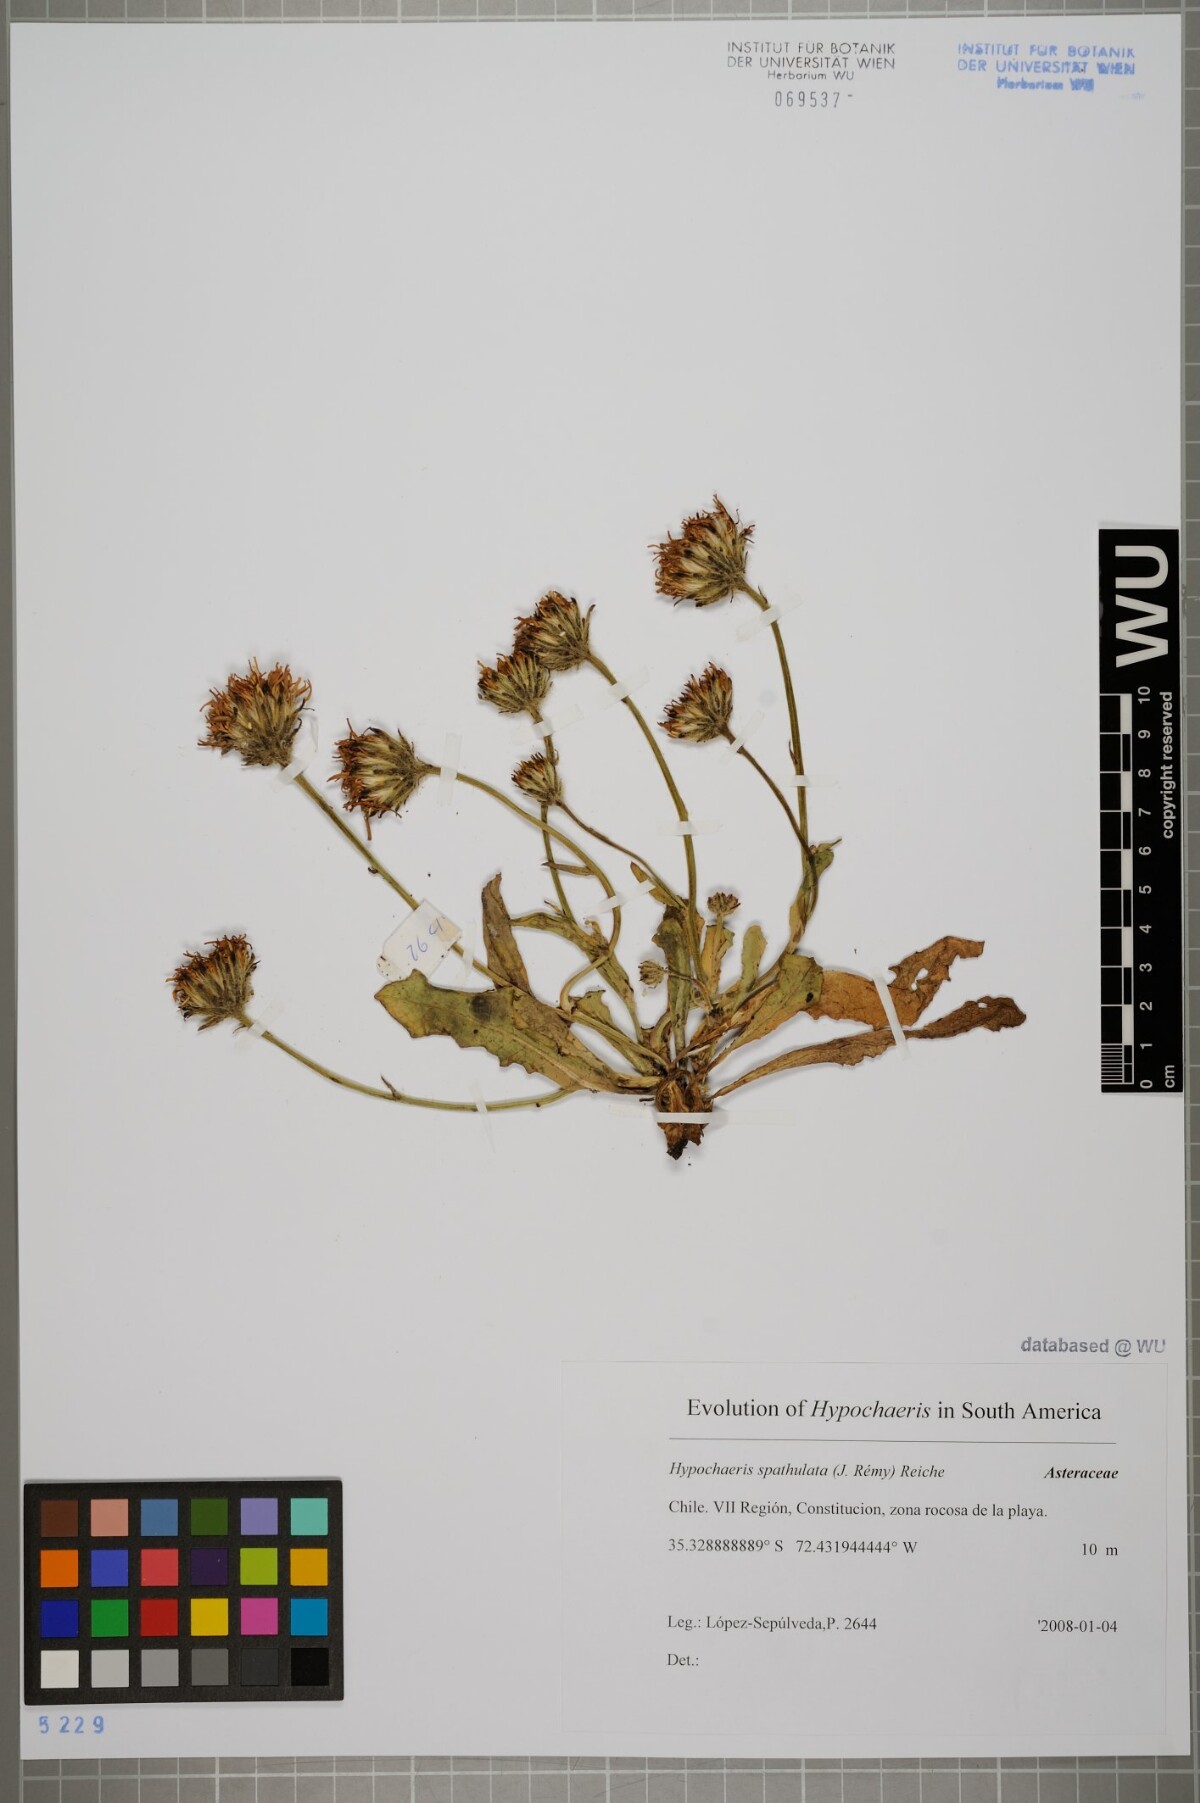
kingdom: Plantae
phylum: Tracheophyta
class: Magnoliopsida
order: Asterales
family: Asteraceae
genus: Hypochaeris
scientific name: Hypochaeris spathulata
